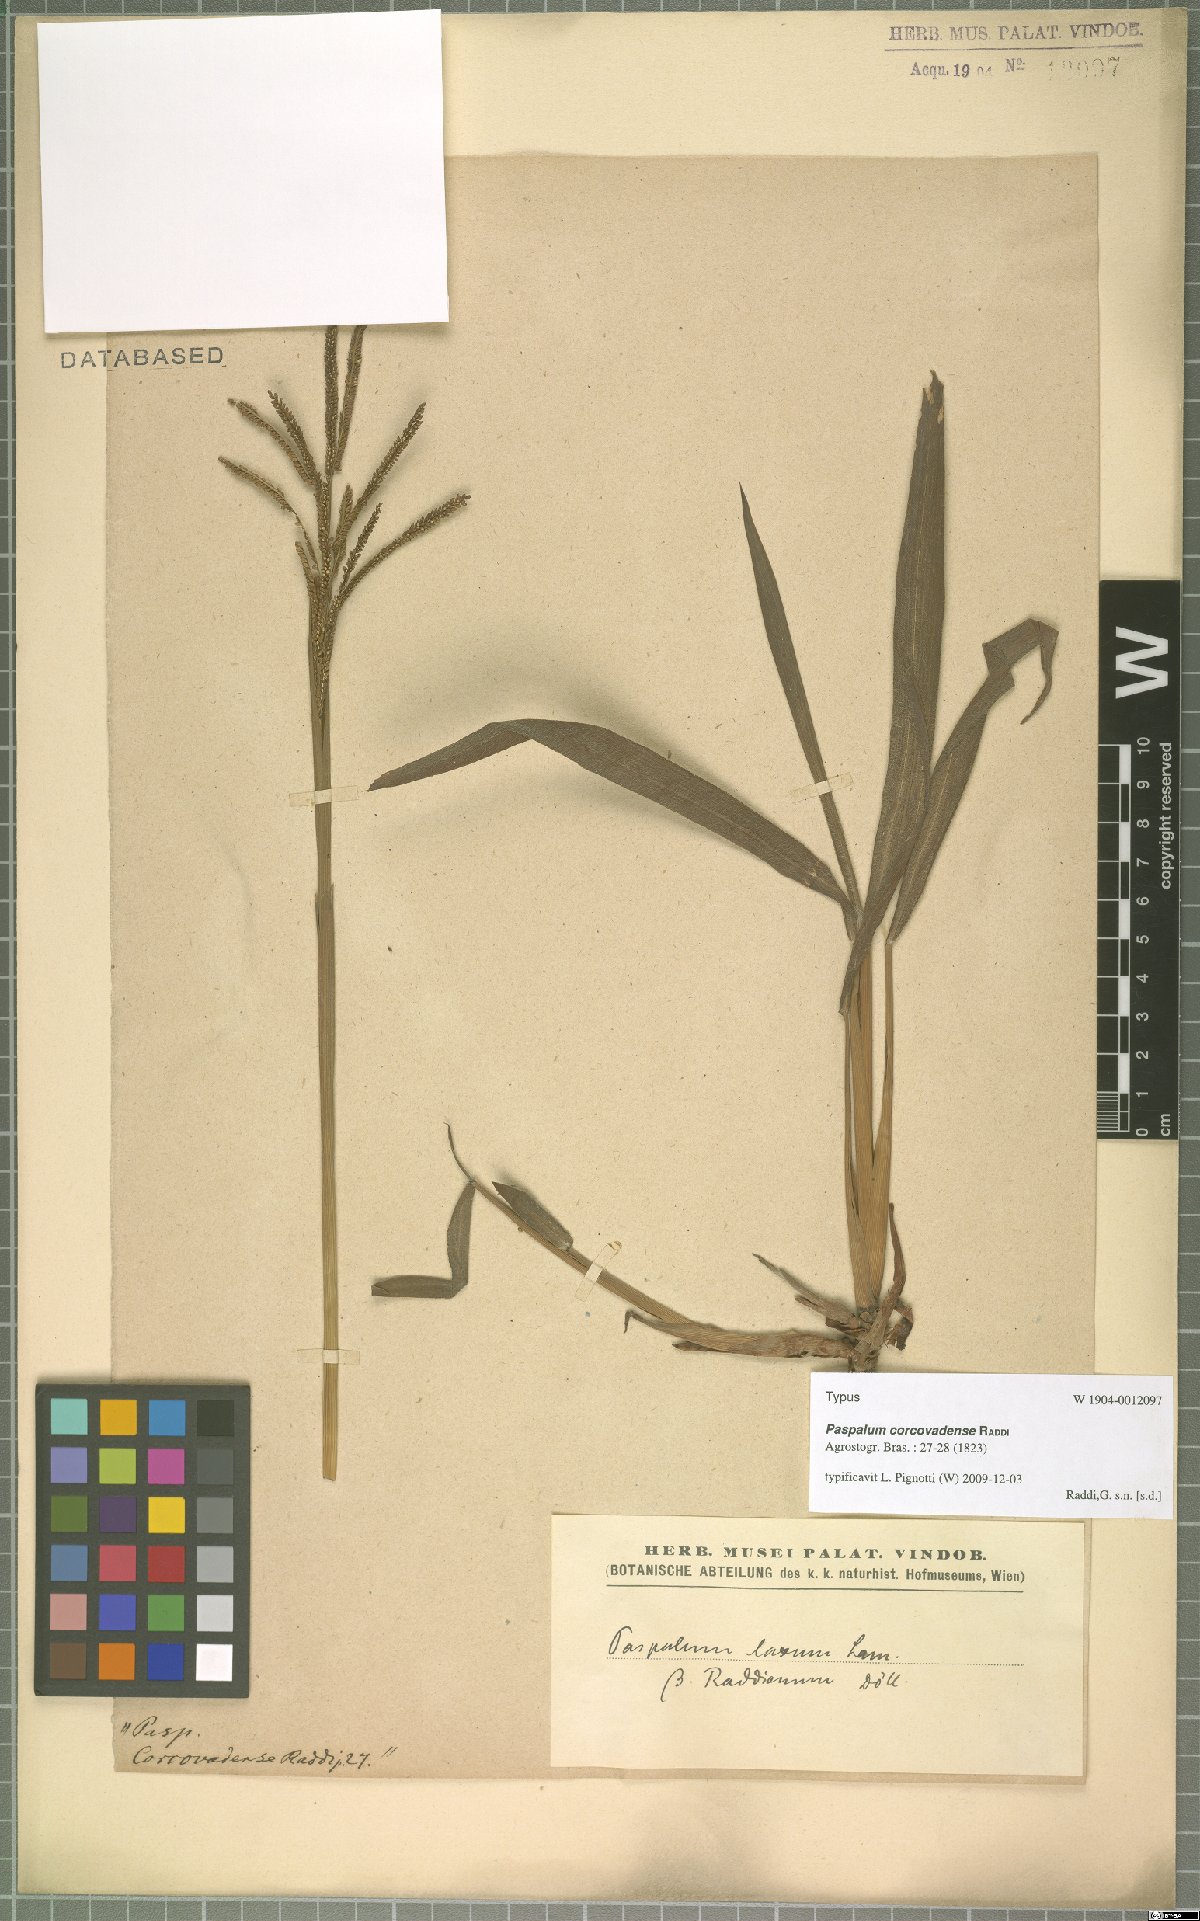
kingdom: Plantae
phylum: Tracheophyta
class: Liliopsida
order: Poales
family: Poaceae
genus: Paspalum
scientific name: Paspalum corcovadense
